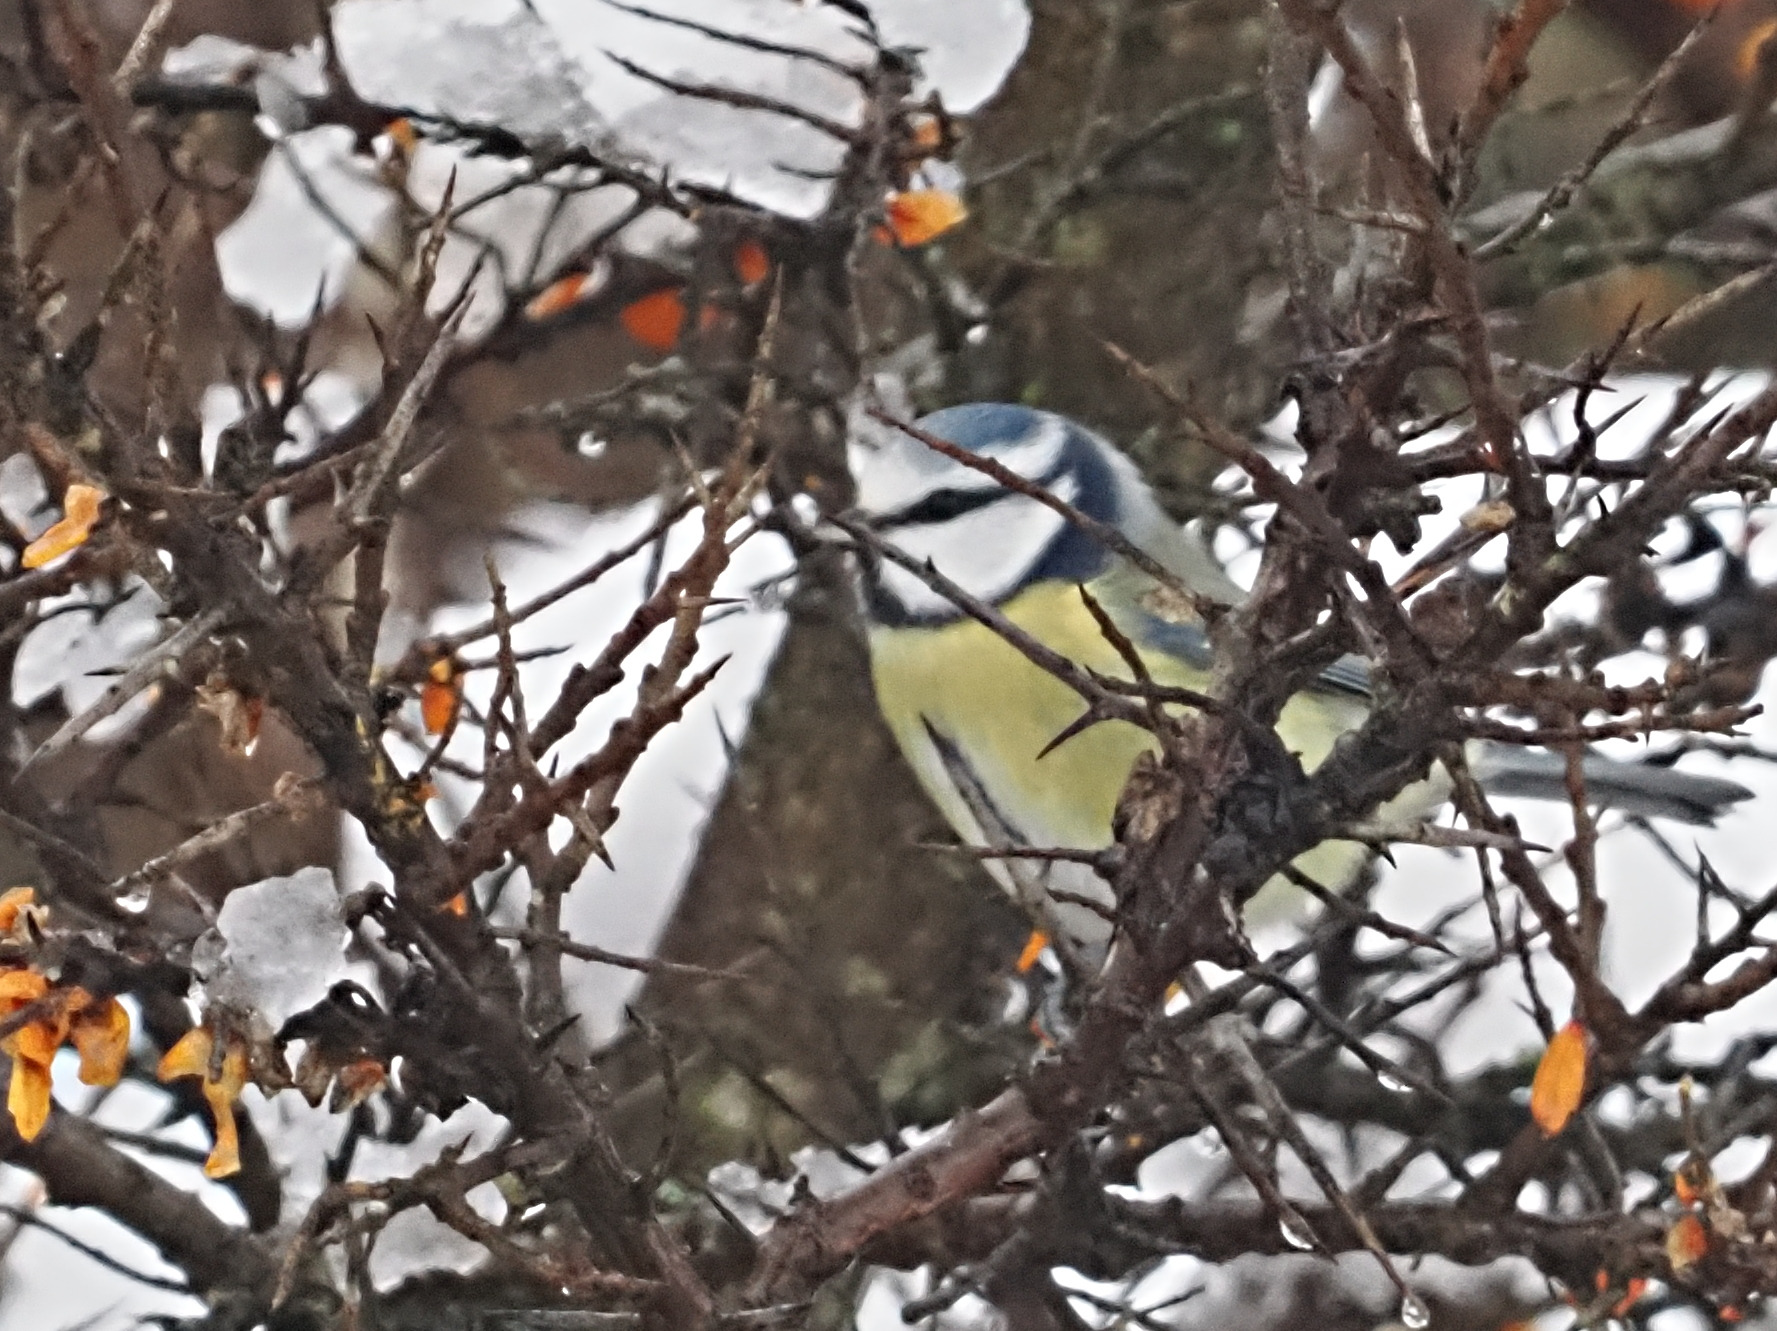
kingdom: Animalia
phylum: Chordata
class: Aves
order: Passeriformes
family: Paridae
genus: Cyanistes
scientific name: Cyanistes caeruleus
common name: Blåmejse
